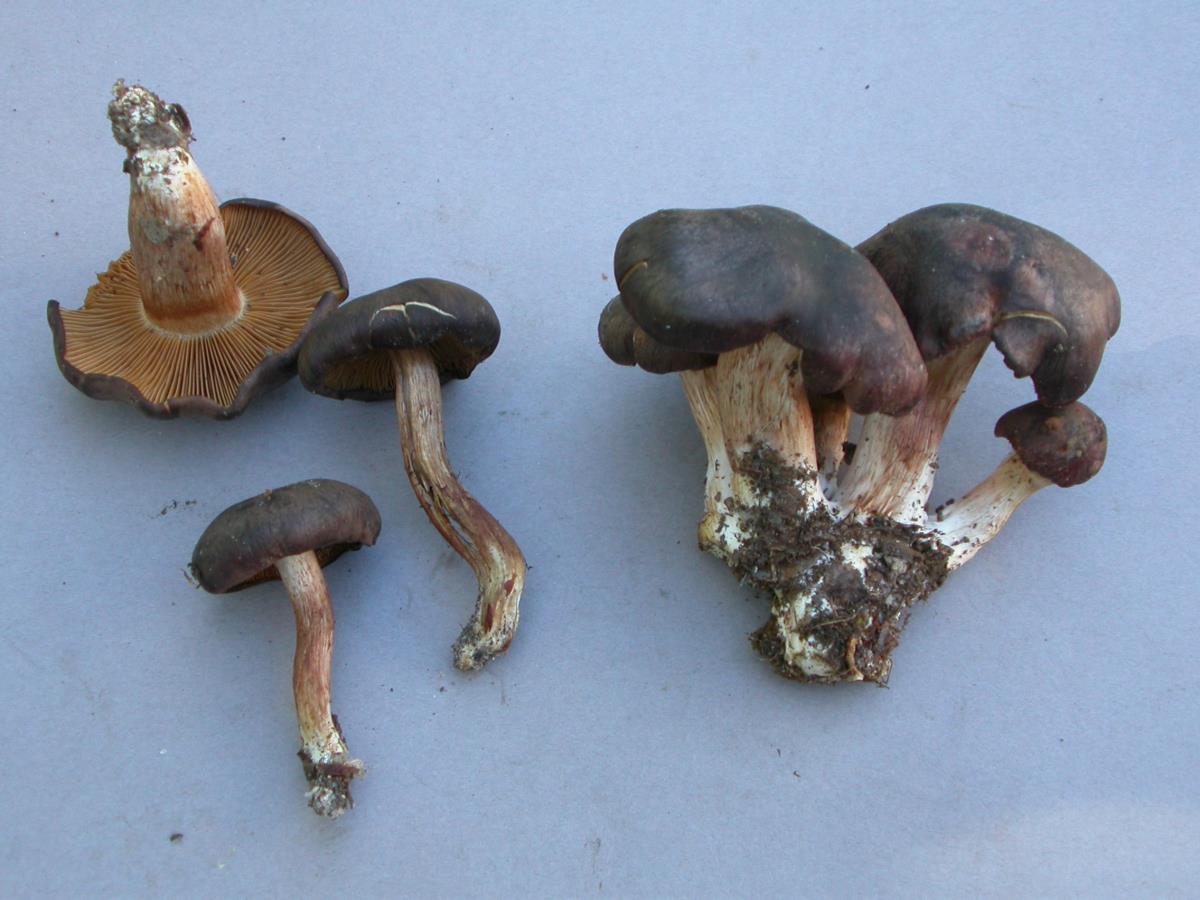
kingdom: Fungi
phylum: Basidiomycota
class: Agaricomycetes
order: Agaricales
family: Cortinariaceae
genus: Aureonarius
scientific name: Aureonarius caryotis
